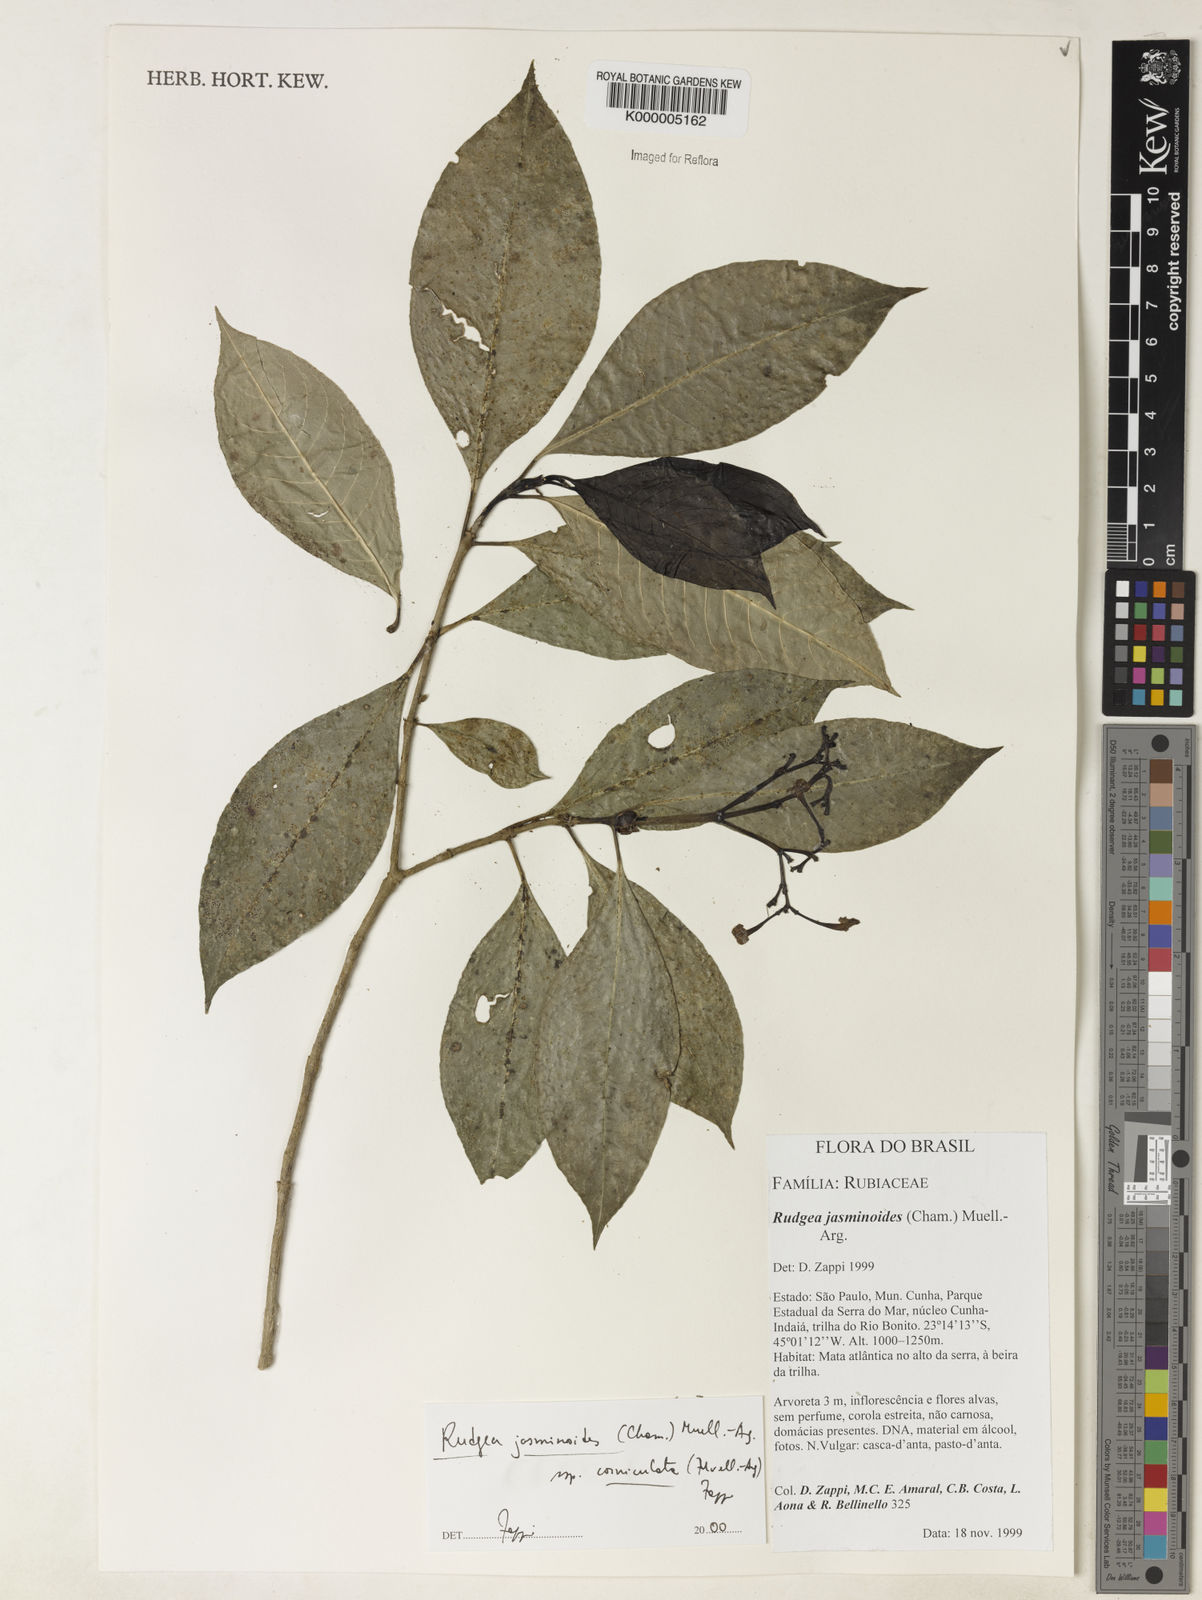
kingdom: Plantae
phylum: Tracheophyta
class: Magnoliopsida
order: Gentianales
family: Rubiaceae
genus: Rudgea
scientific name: Rudgea jasminoides
